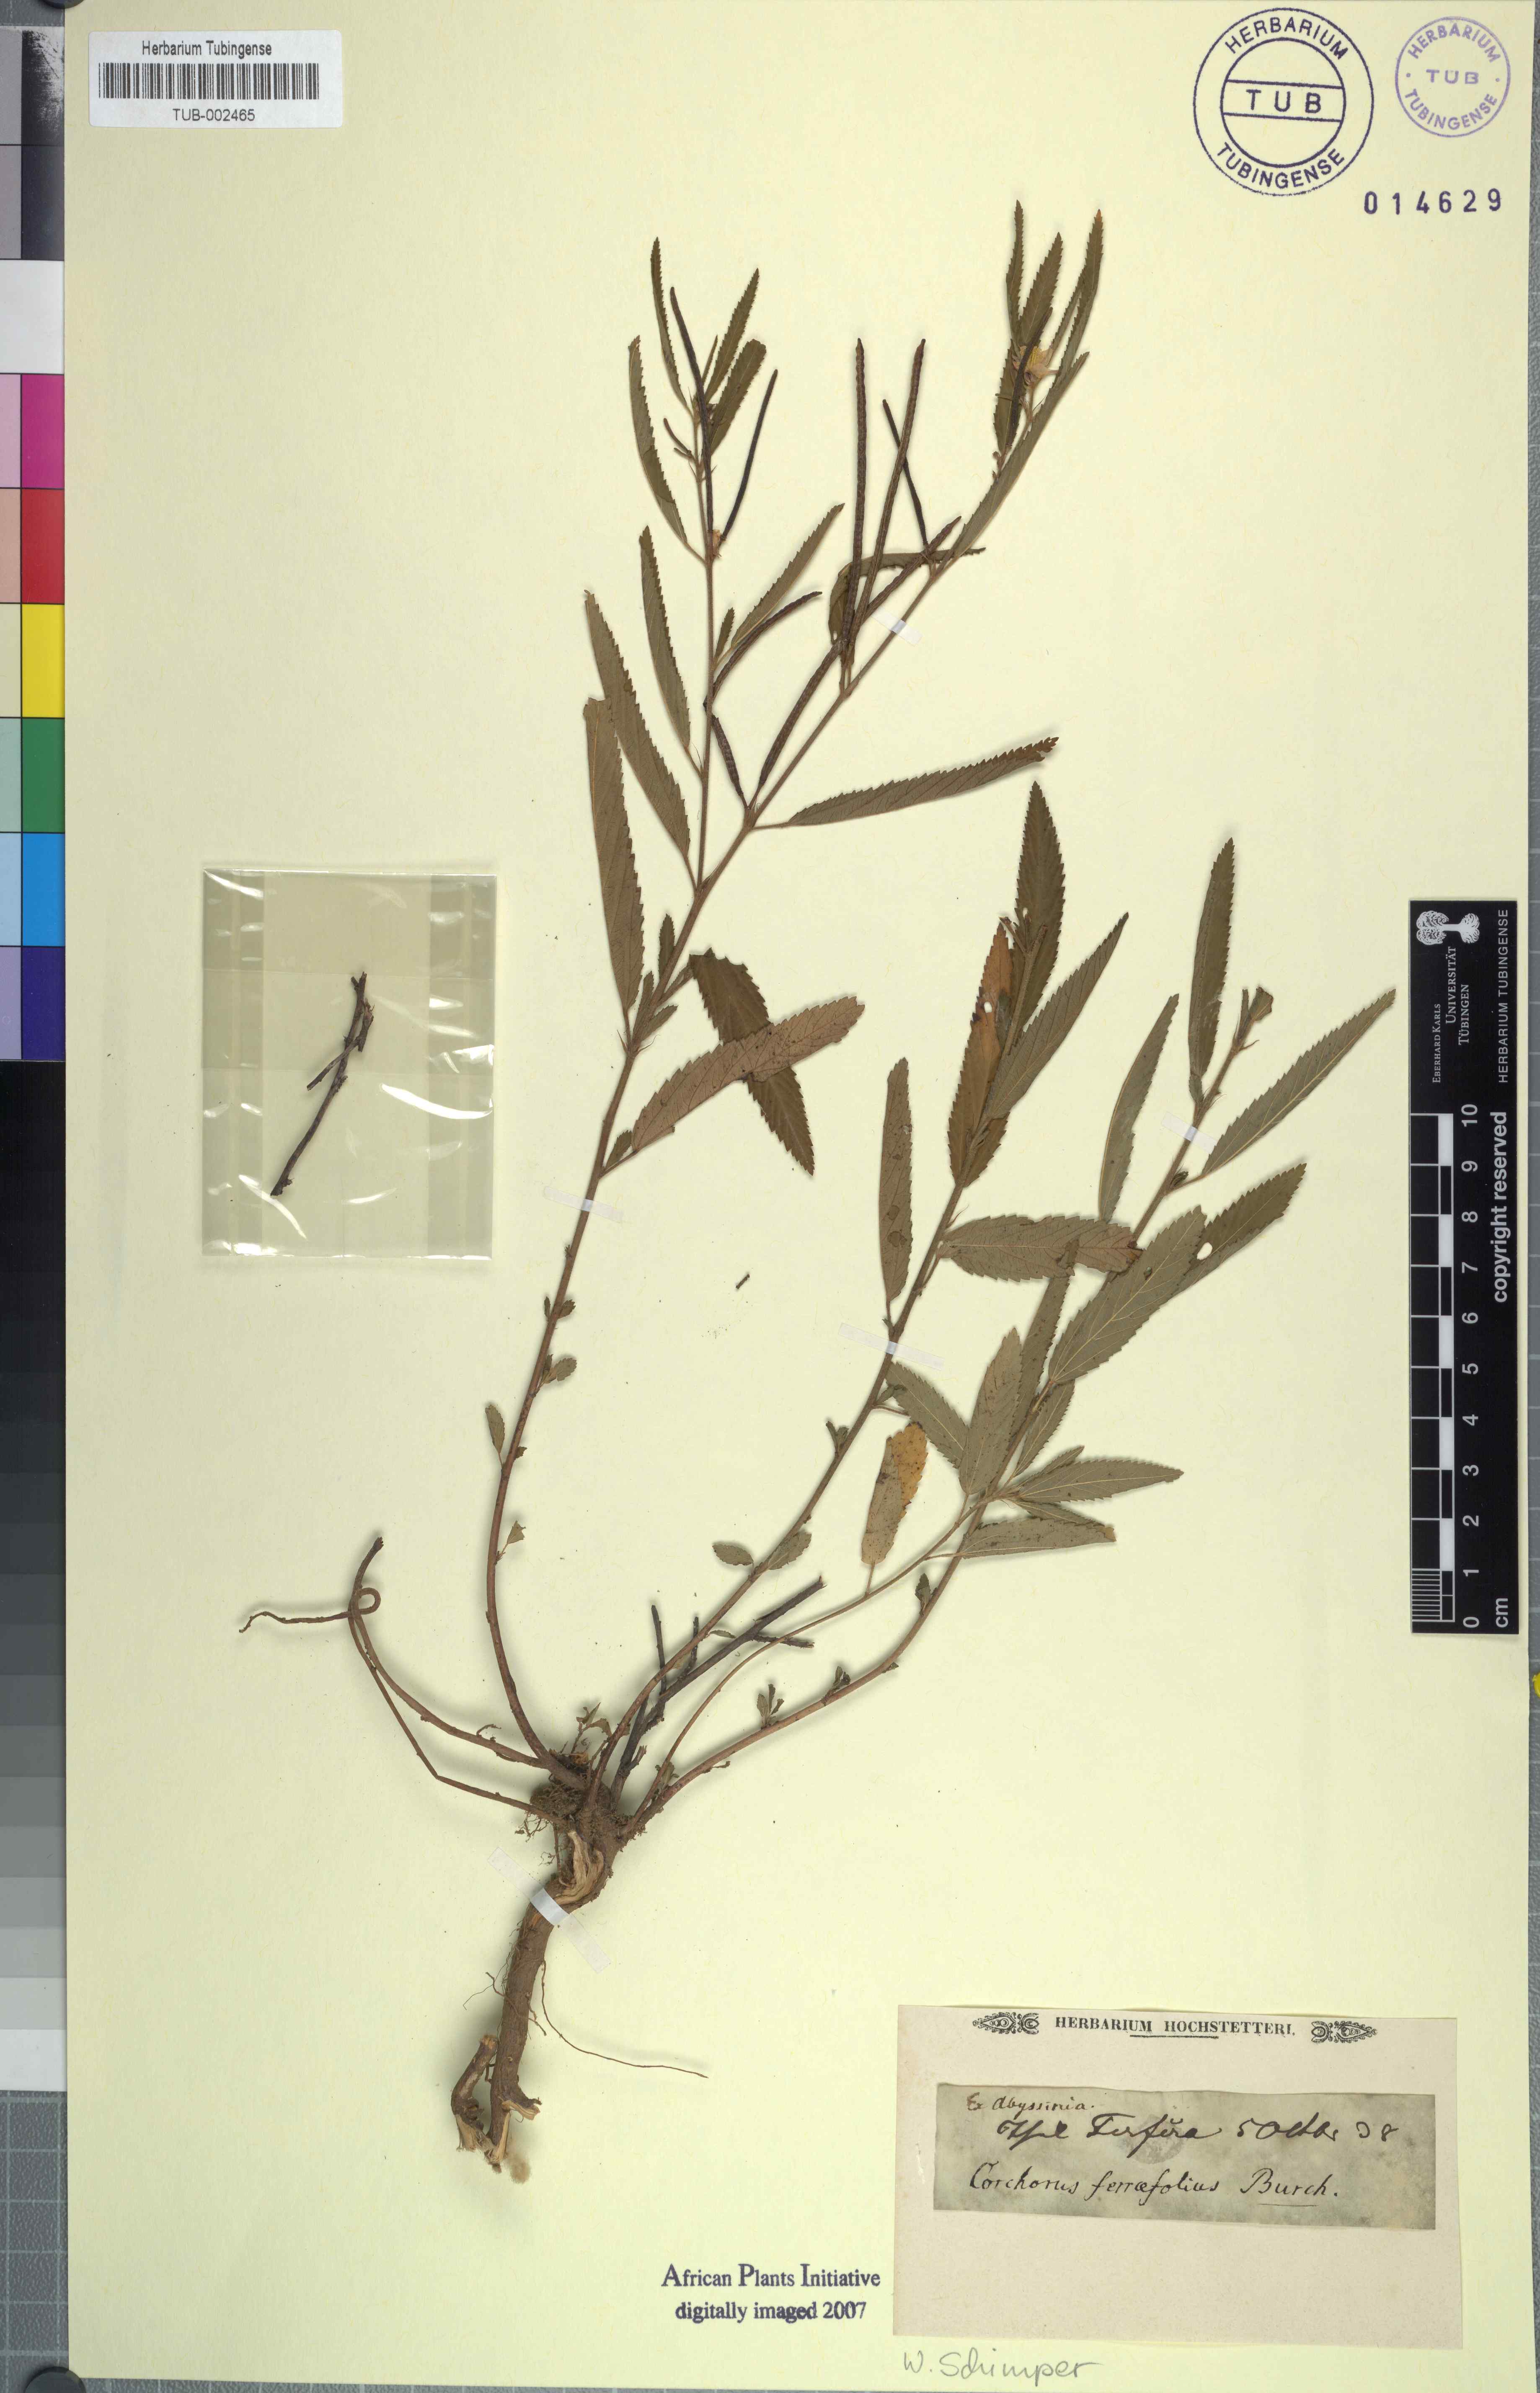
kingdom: Plantae
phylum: Tracheophyta
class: Magnoliopsida
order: Malvales
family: Malvaceae
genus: Corchorus
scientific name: Corchorus trilocularis
